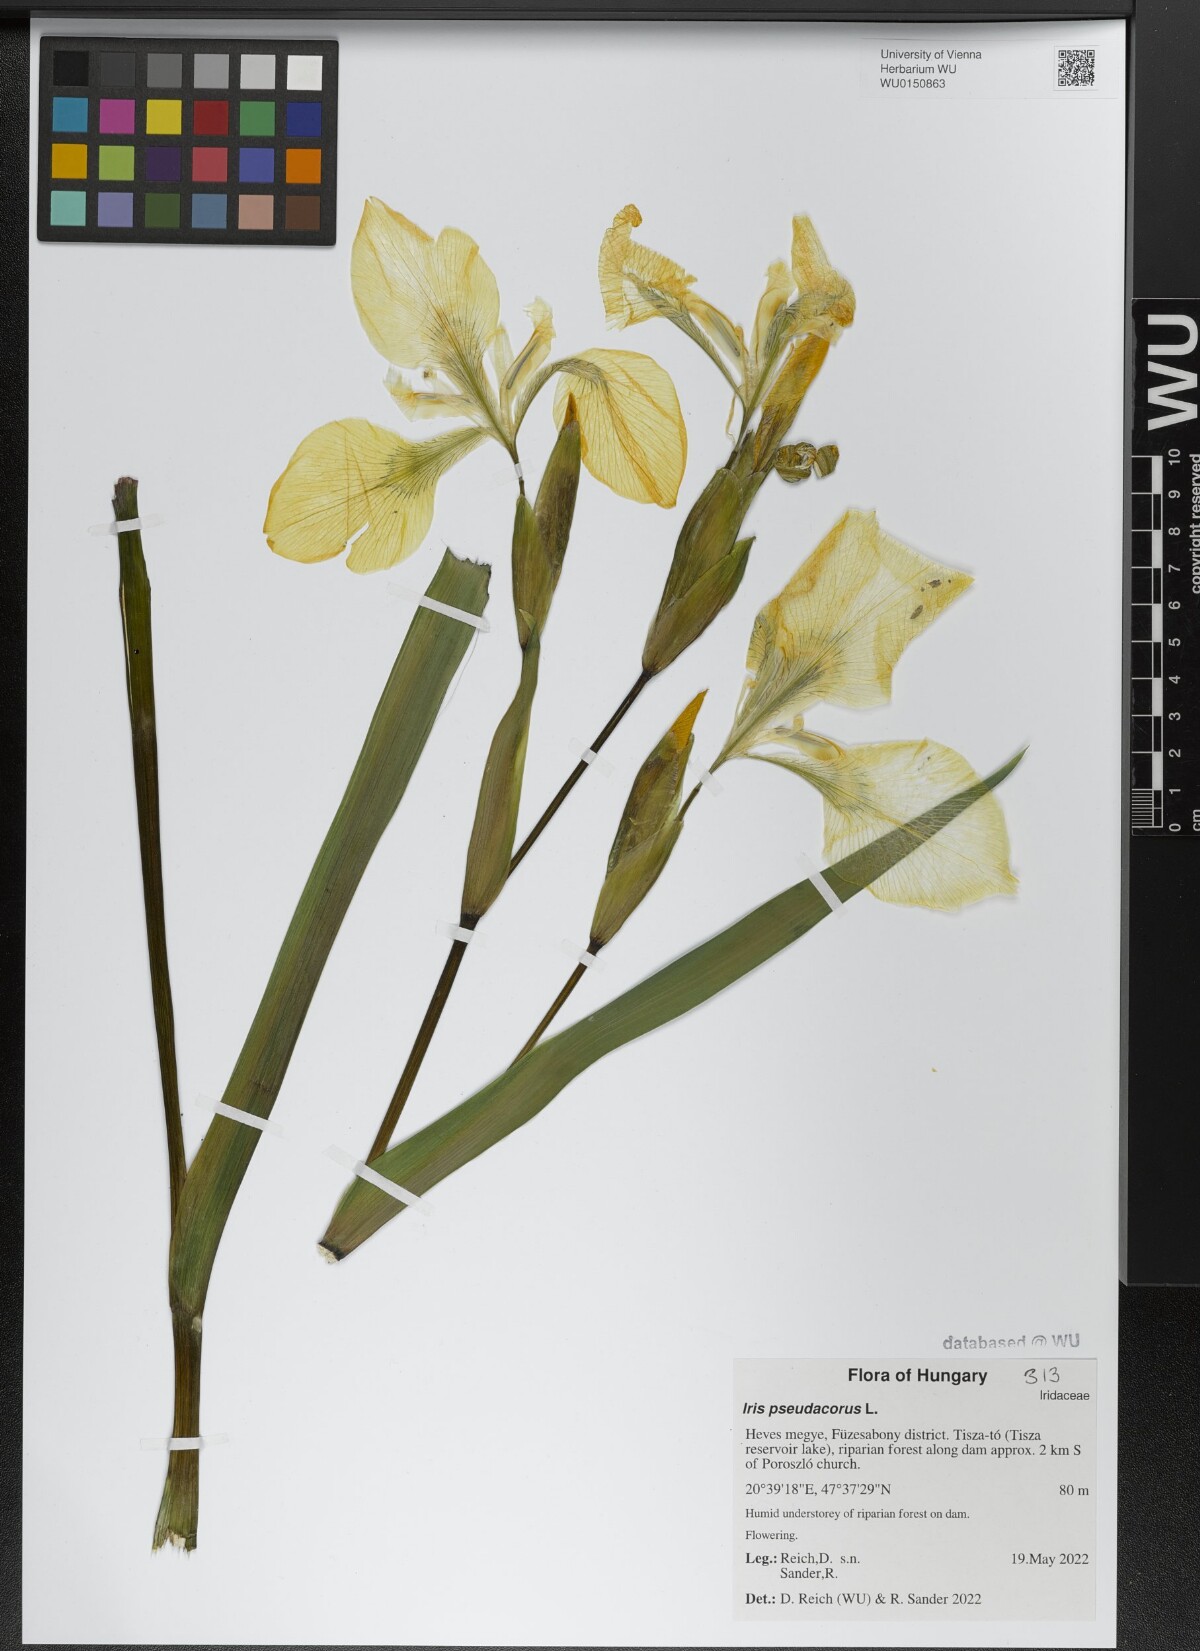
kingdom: Plantae
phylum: Tracheophyta
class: Liliopsida
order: Asparagales
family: Iridaceae
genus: Iris
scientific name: Iris pseudacorus
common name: Yellow flag
